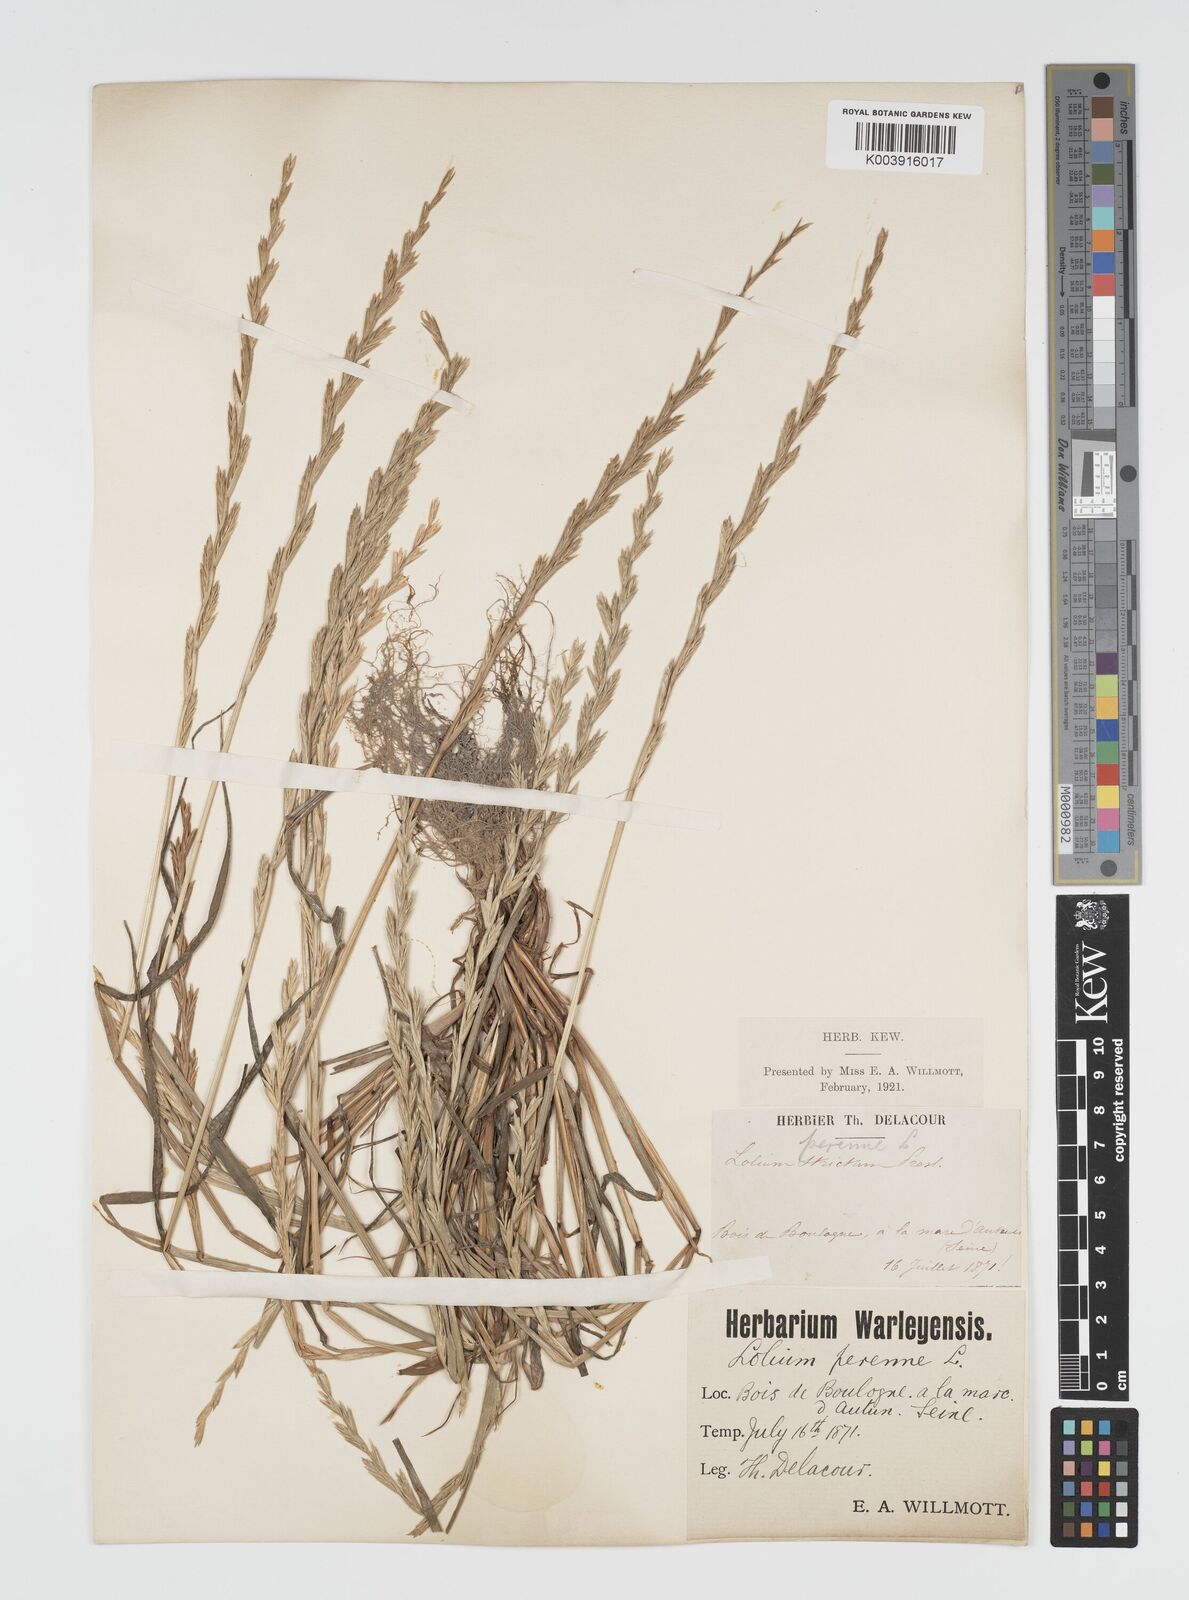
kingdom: Plantae
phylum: Tracheophyta
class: Liliopsida
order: Poales
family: Poaceae
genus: Lolium
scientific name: Lolium multiflorum
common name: Annual ryegrass
